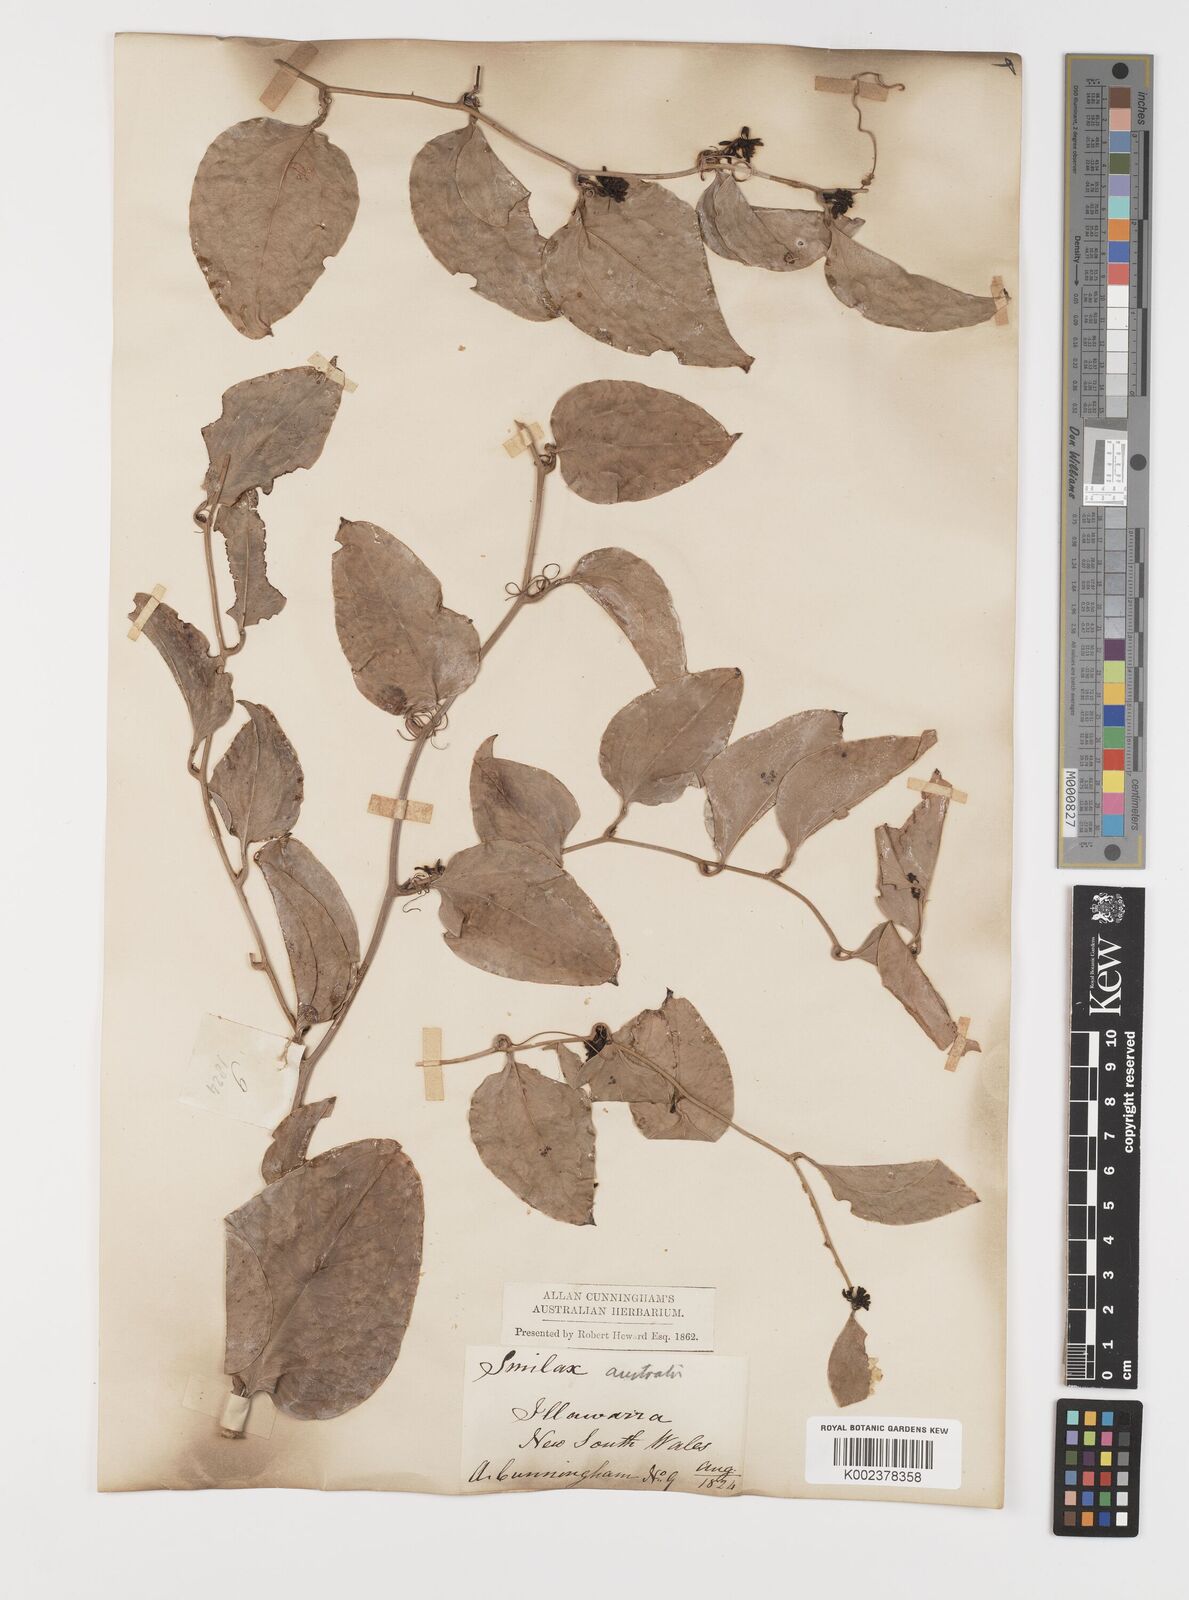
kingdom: Plantae
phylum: Tracheophyta
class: Liliopsida
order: Liliales
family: Smilacaceae
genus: Smilax
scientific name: Smilax australis
